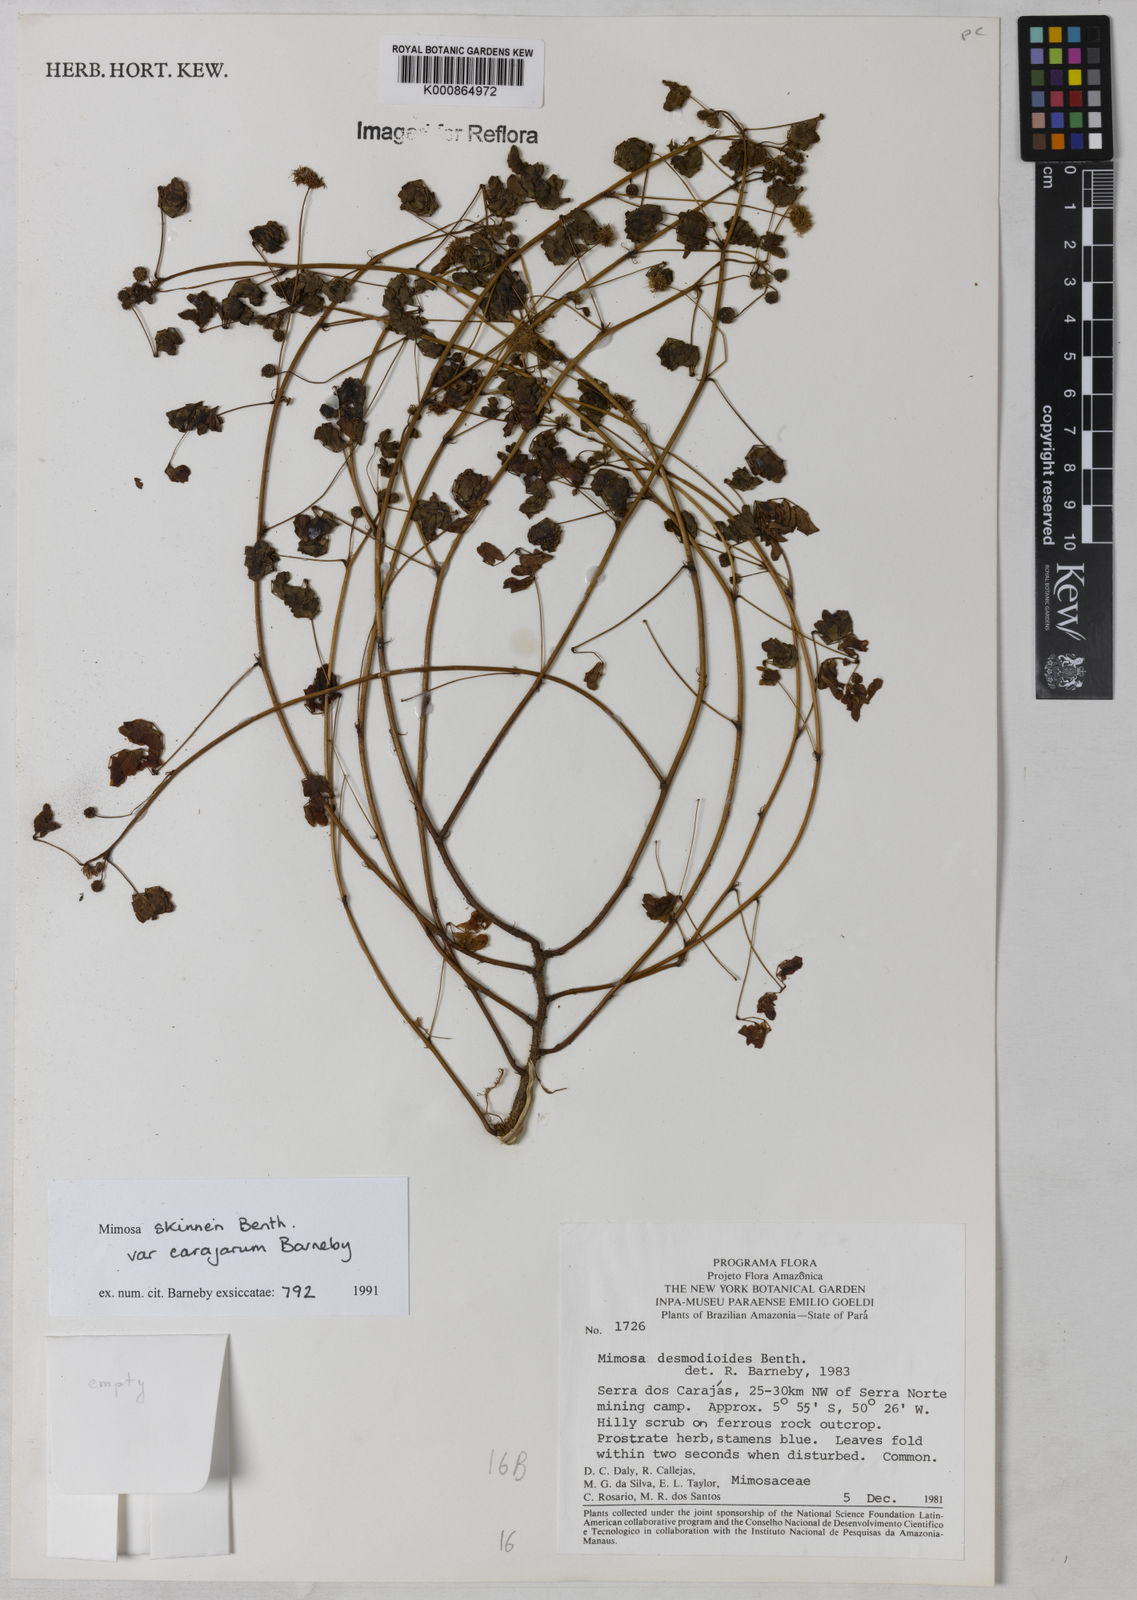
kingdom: Plantae
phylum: Tracheophyta
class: Magnoliopsida
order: Fabales
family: Fabaceae
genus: Mimosa
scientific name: Mimosa skinneri
